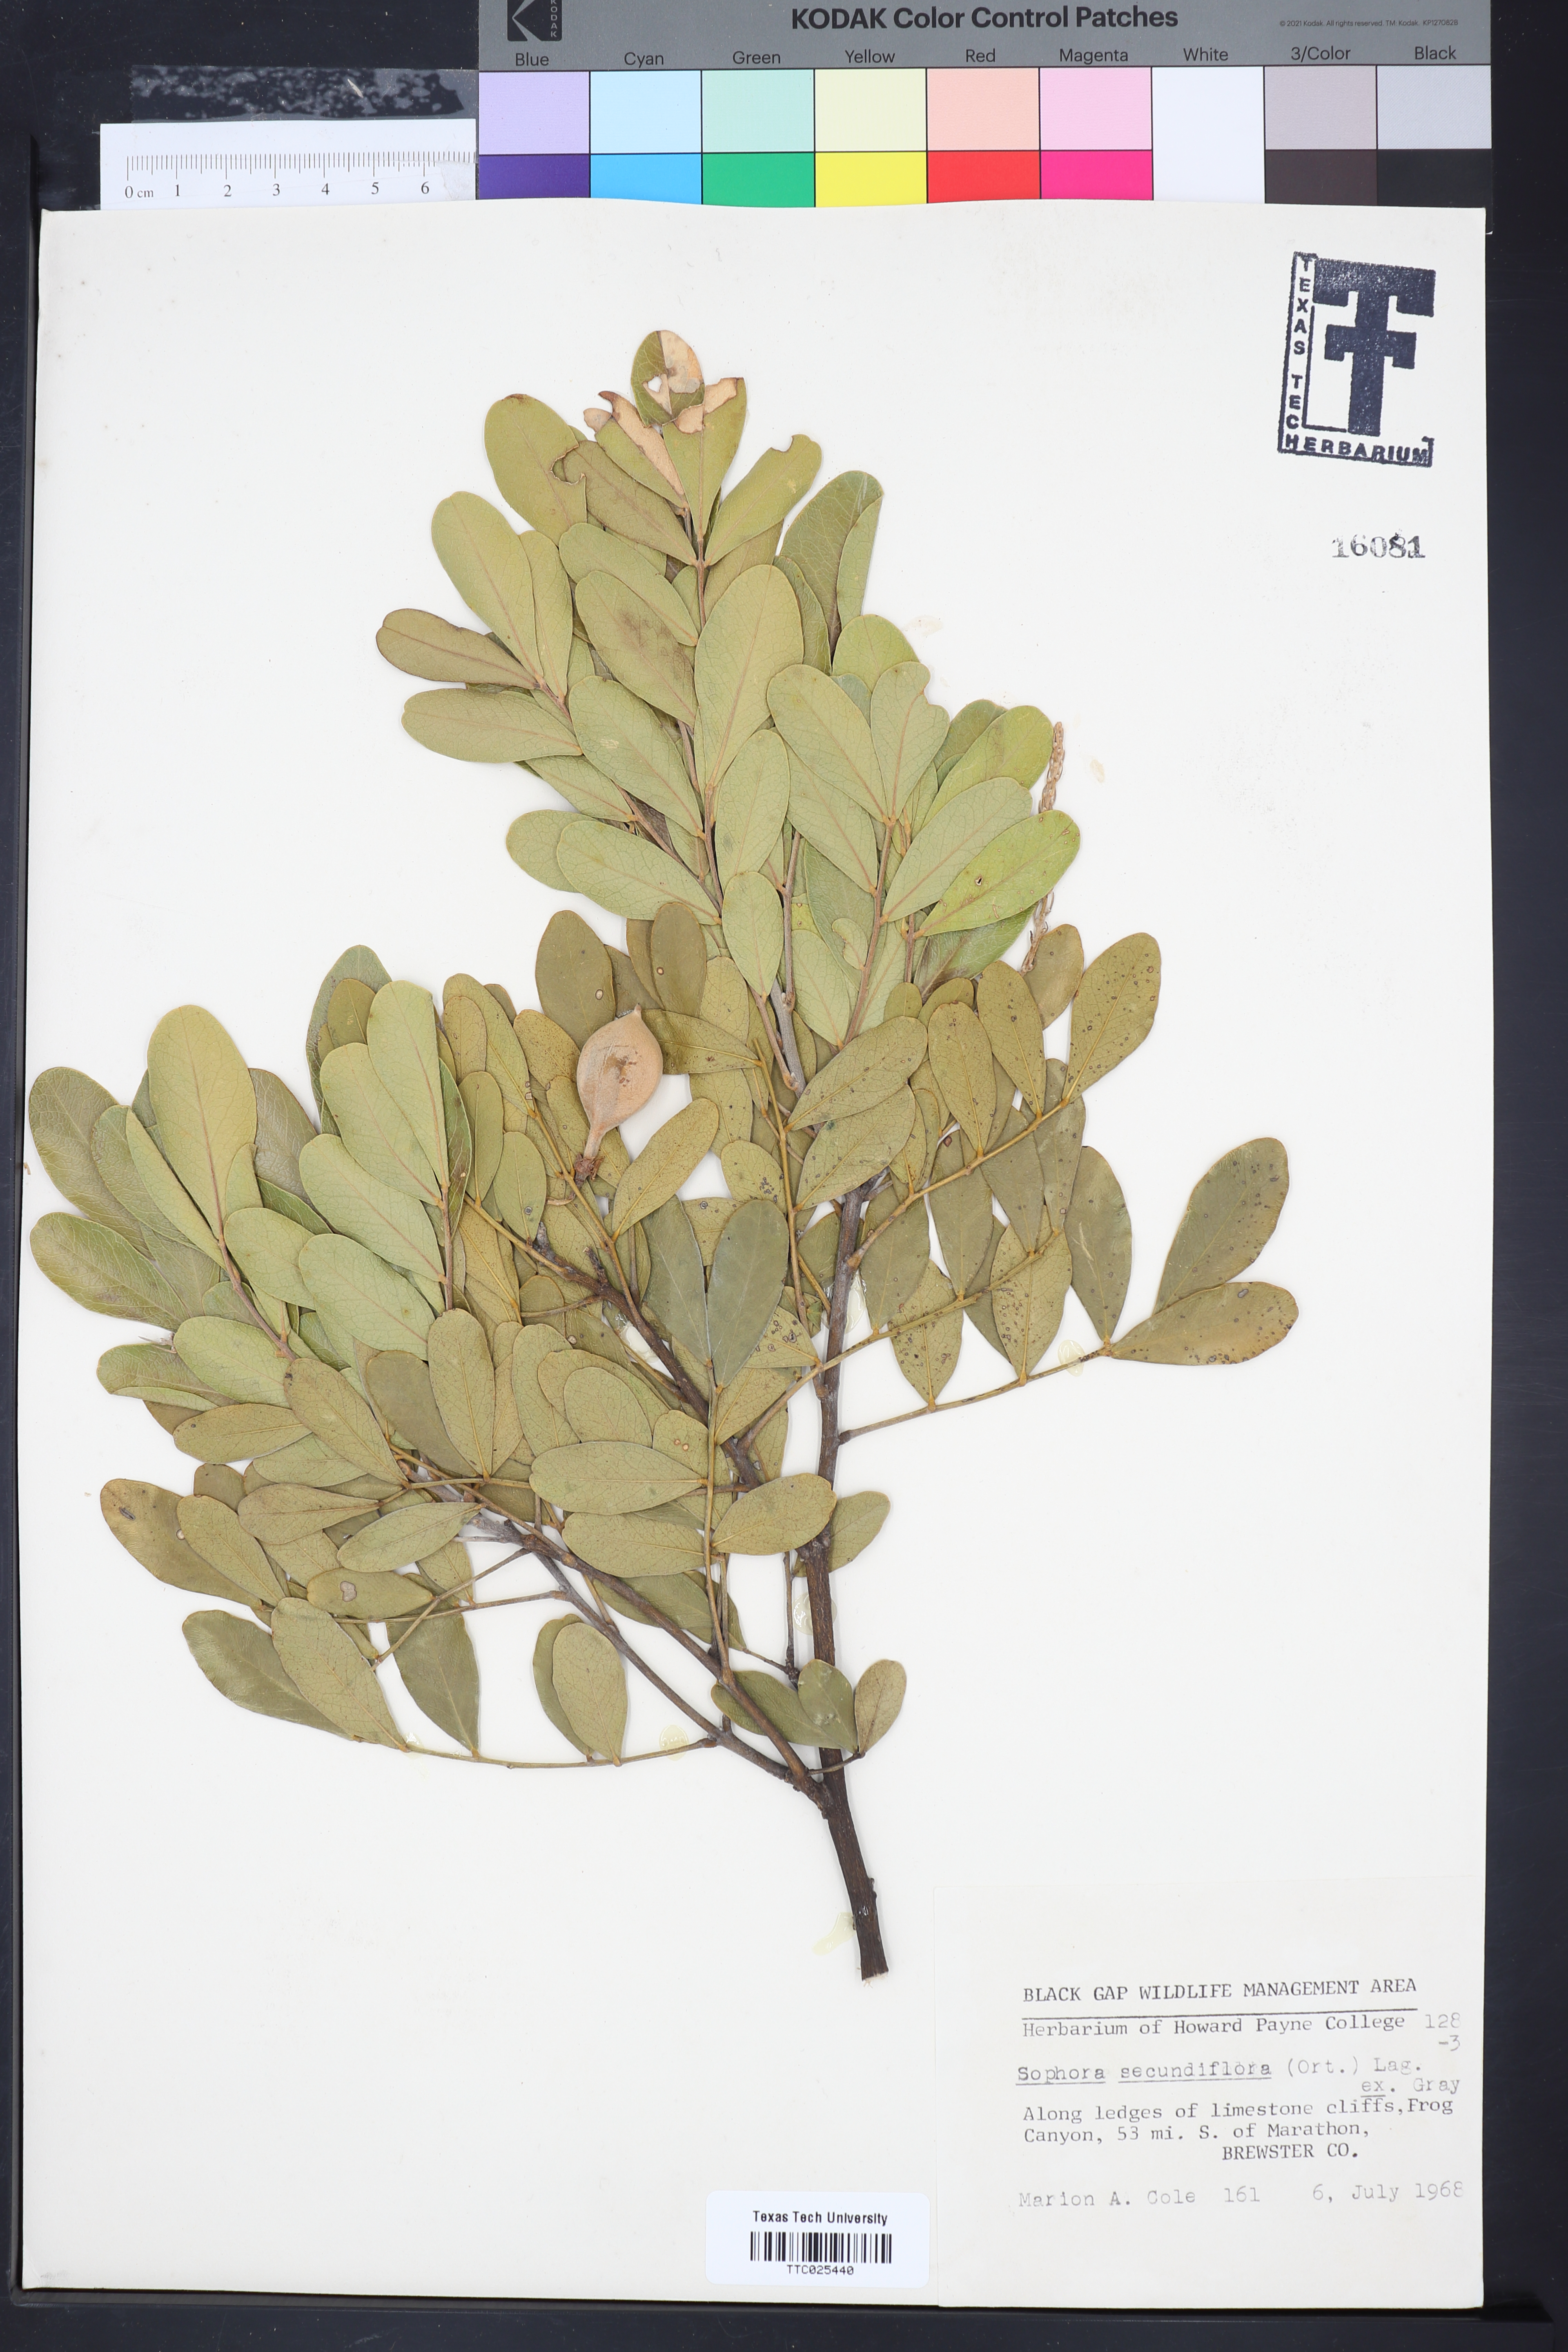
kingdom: Plantae
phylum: Tracheophyta
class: Magnoliopsida
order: Fabales
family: Fabaceae
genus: Dermatophyllum
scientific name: Dermatophyllum secundiflorum
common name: Texas-mountain-laurel
